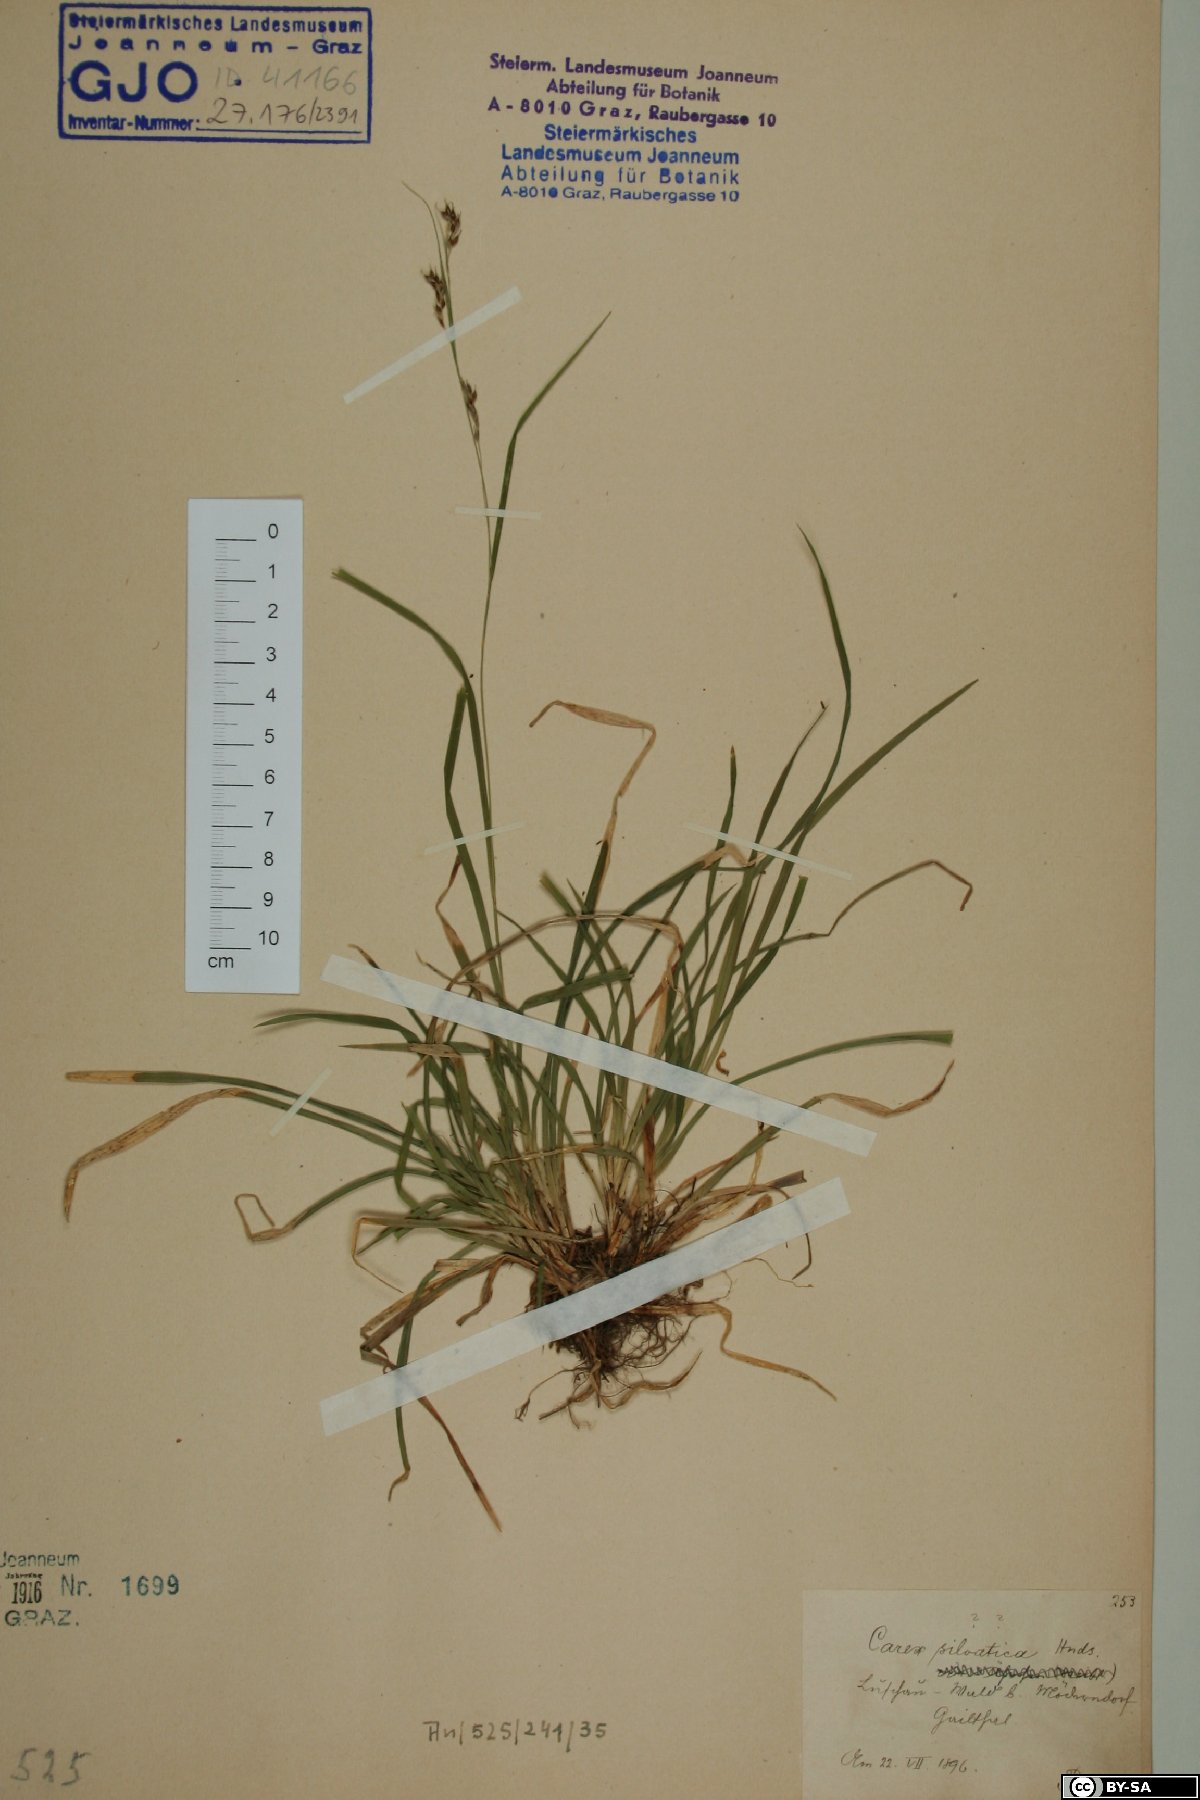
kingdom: Plantae
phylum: Tracheophyta
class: Liliopsida
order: Poales
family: Cyperaceae
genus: Carex
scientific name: Carex sylvatica
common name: Wood-sedge
